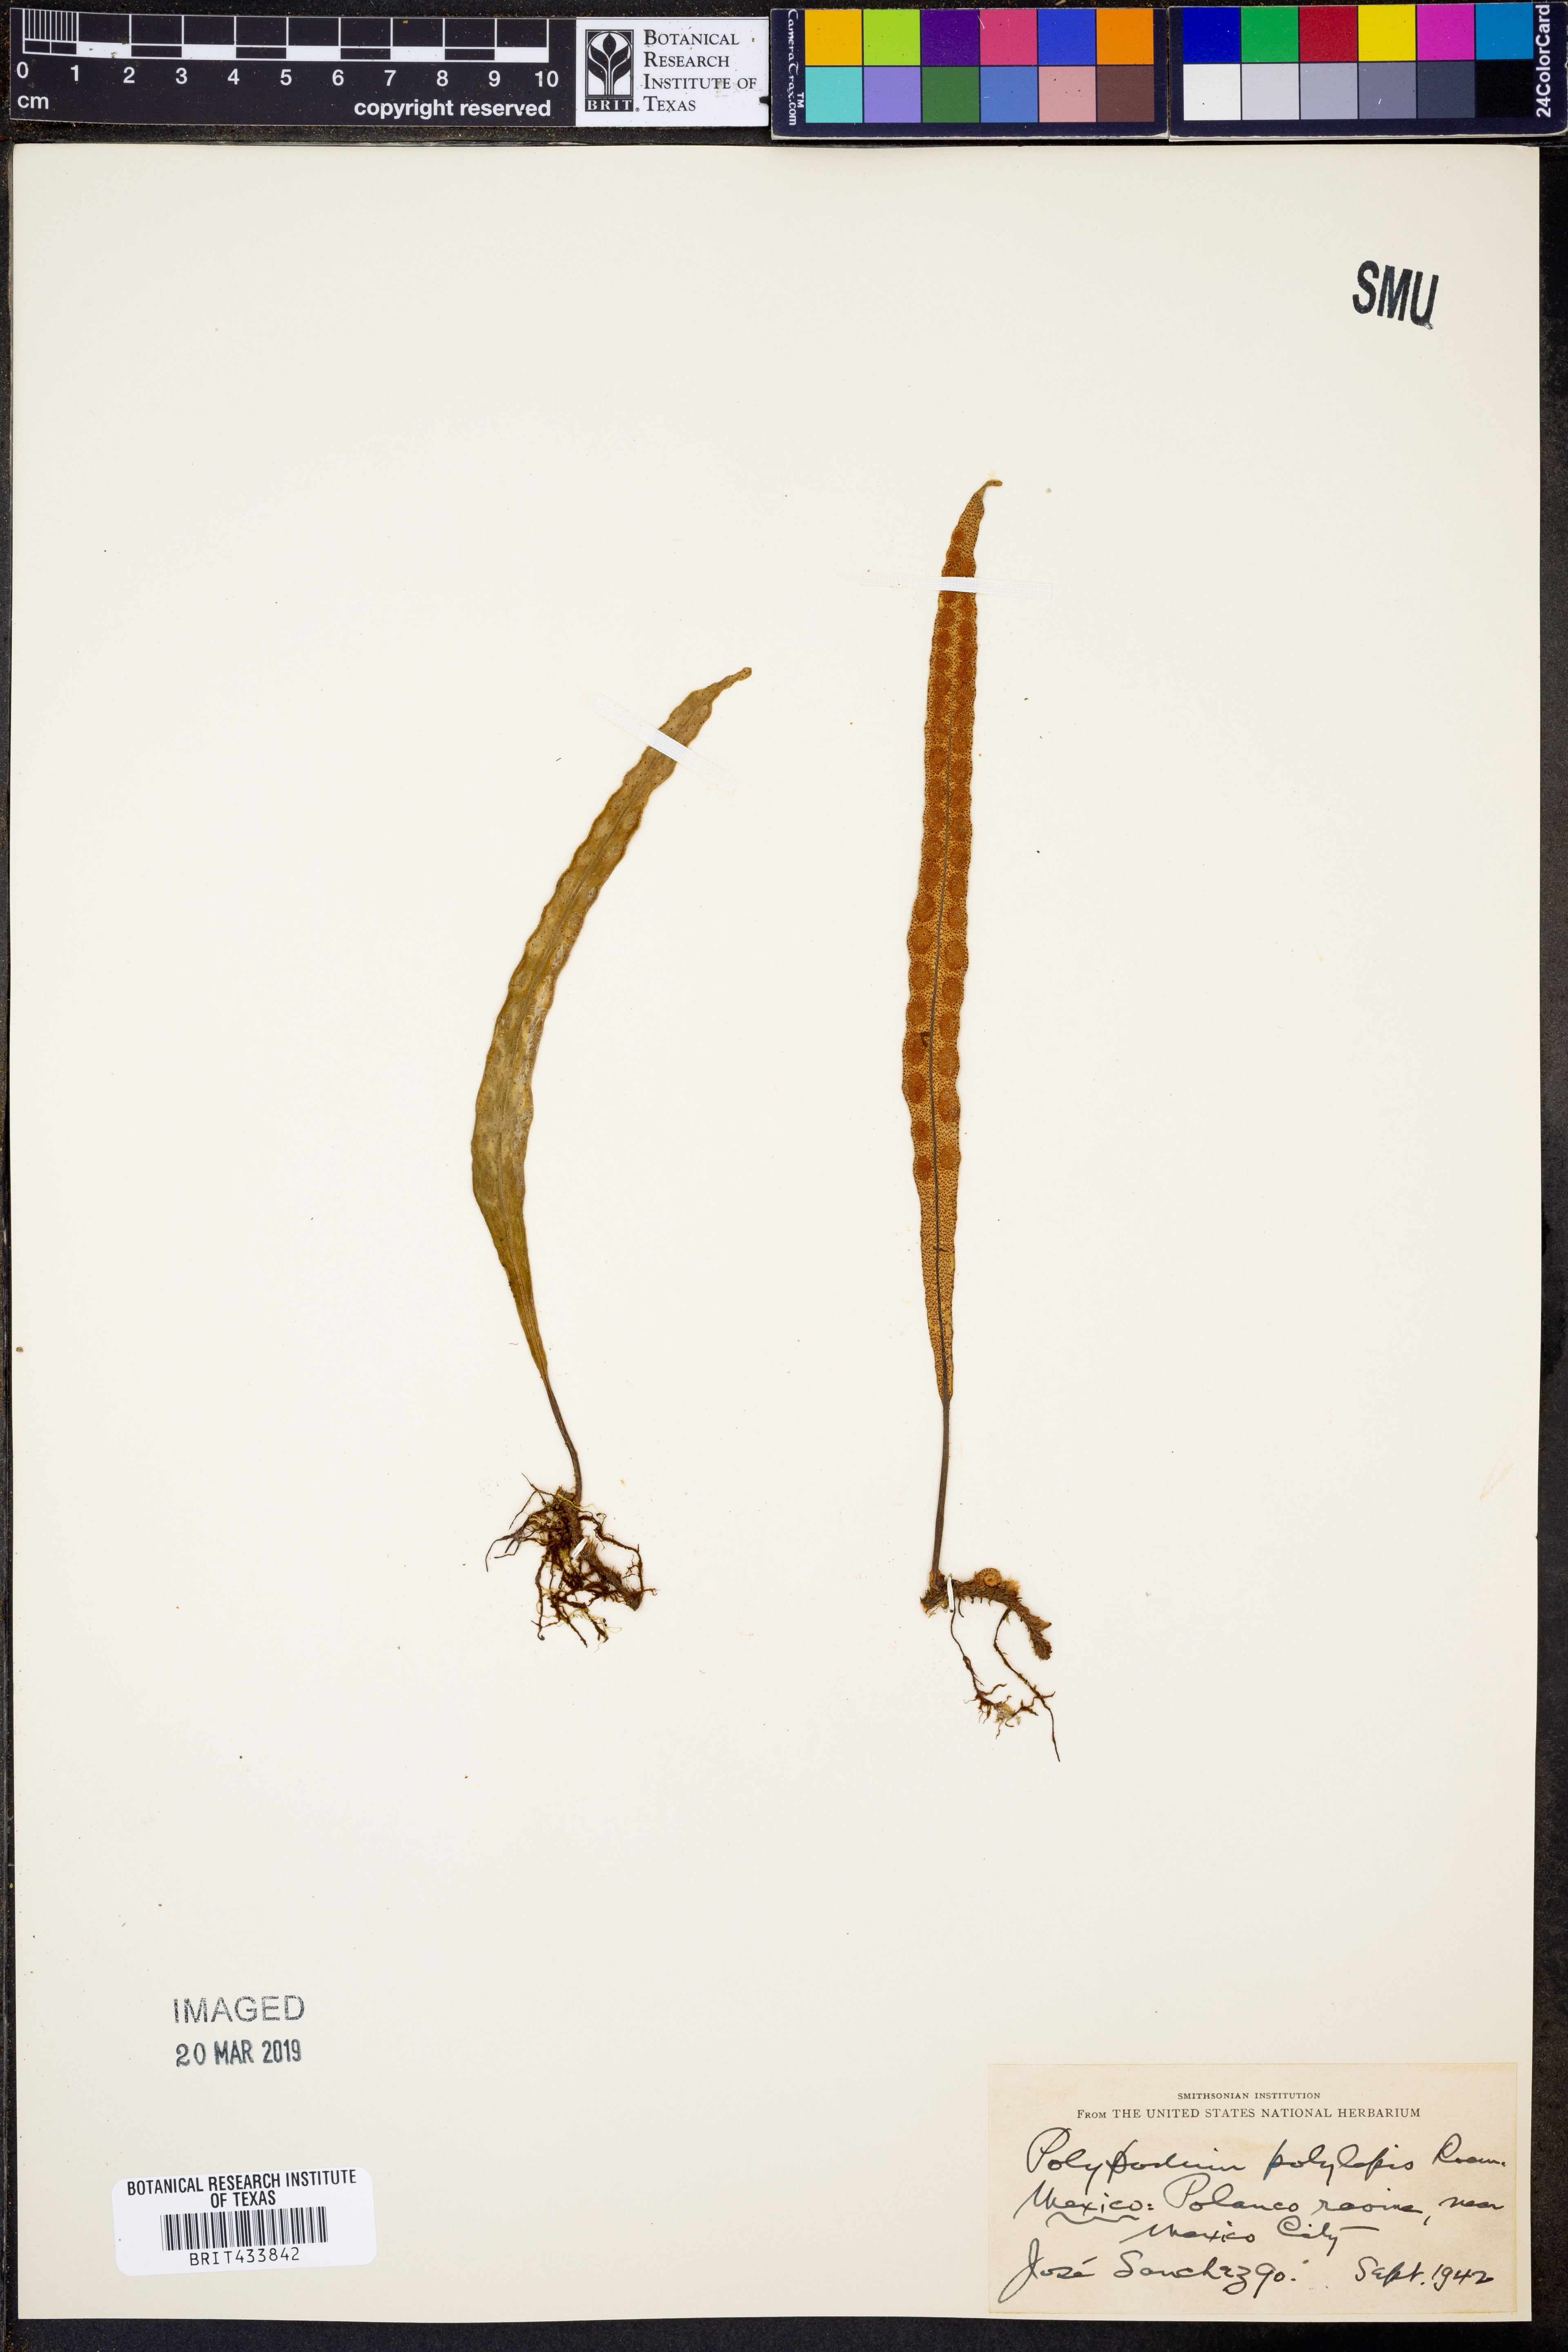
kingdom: Plantae
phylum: Tracheophyta
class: Polypodiopsida
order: Polypodiales
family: Polypodiaceae
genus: Pleopeltis
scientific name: Pleopeltis polylepis
